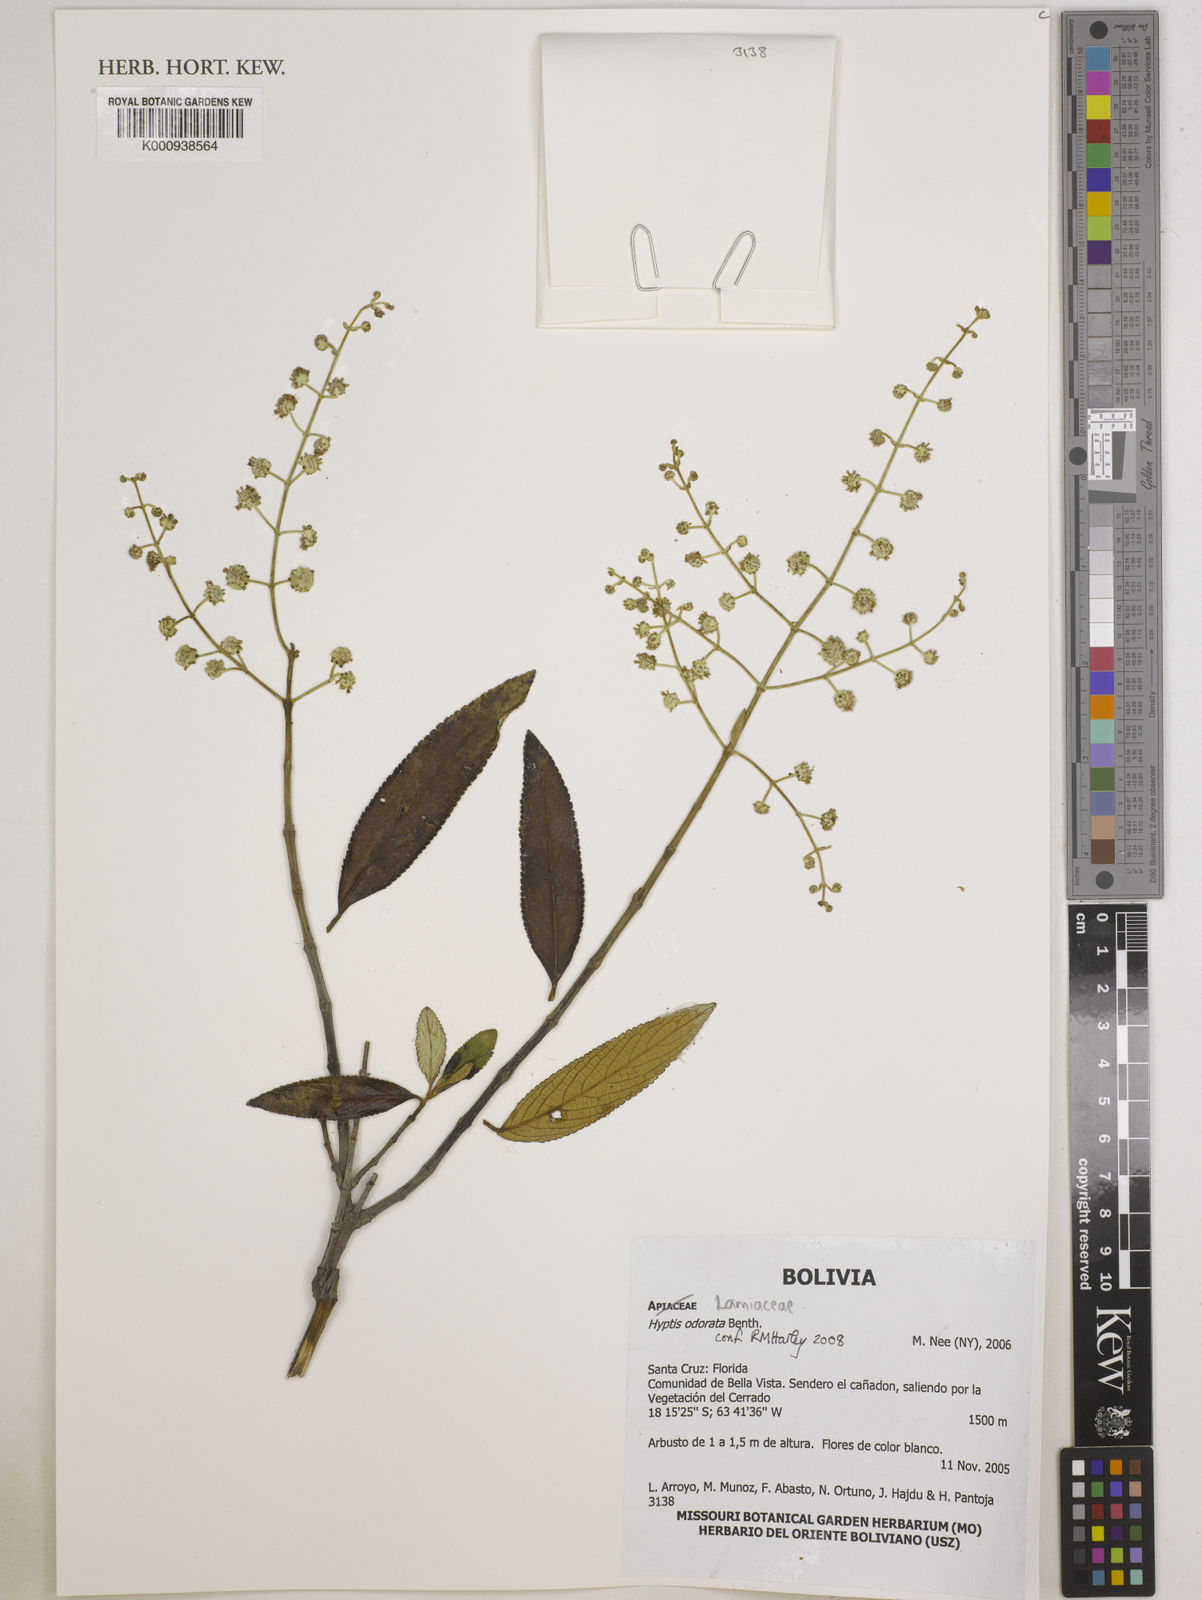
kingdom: Plantae
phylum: Tracheophyta
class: Magnoliopsida
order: Lamiales
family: Lamiaceae
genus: Hyptis
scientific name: Hyptis odorata
